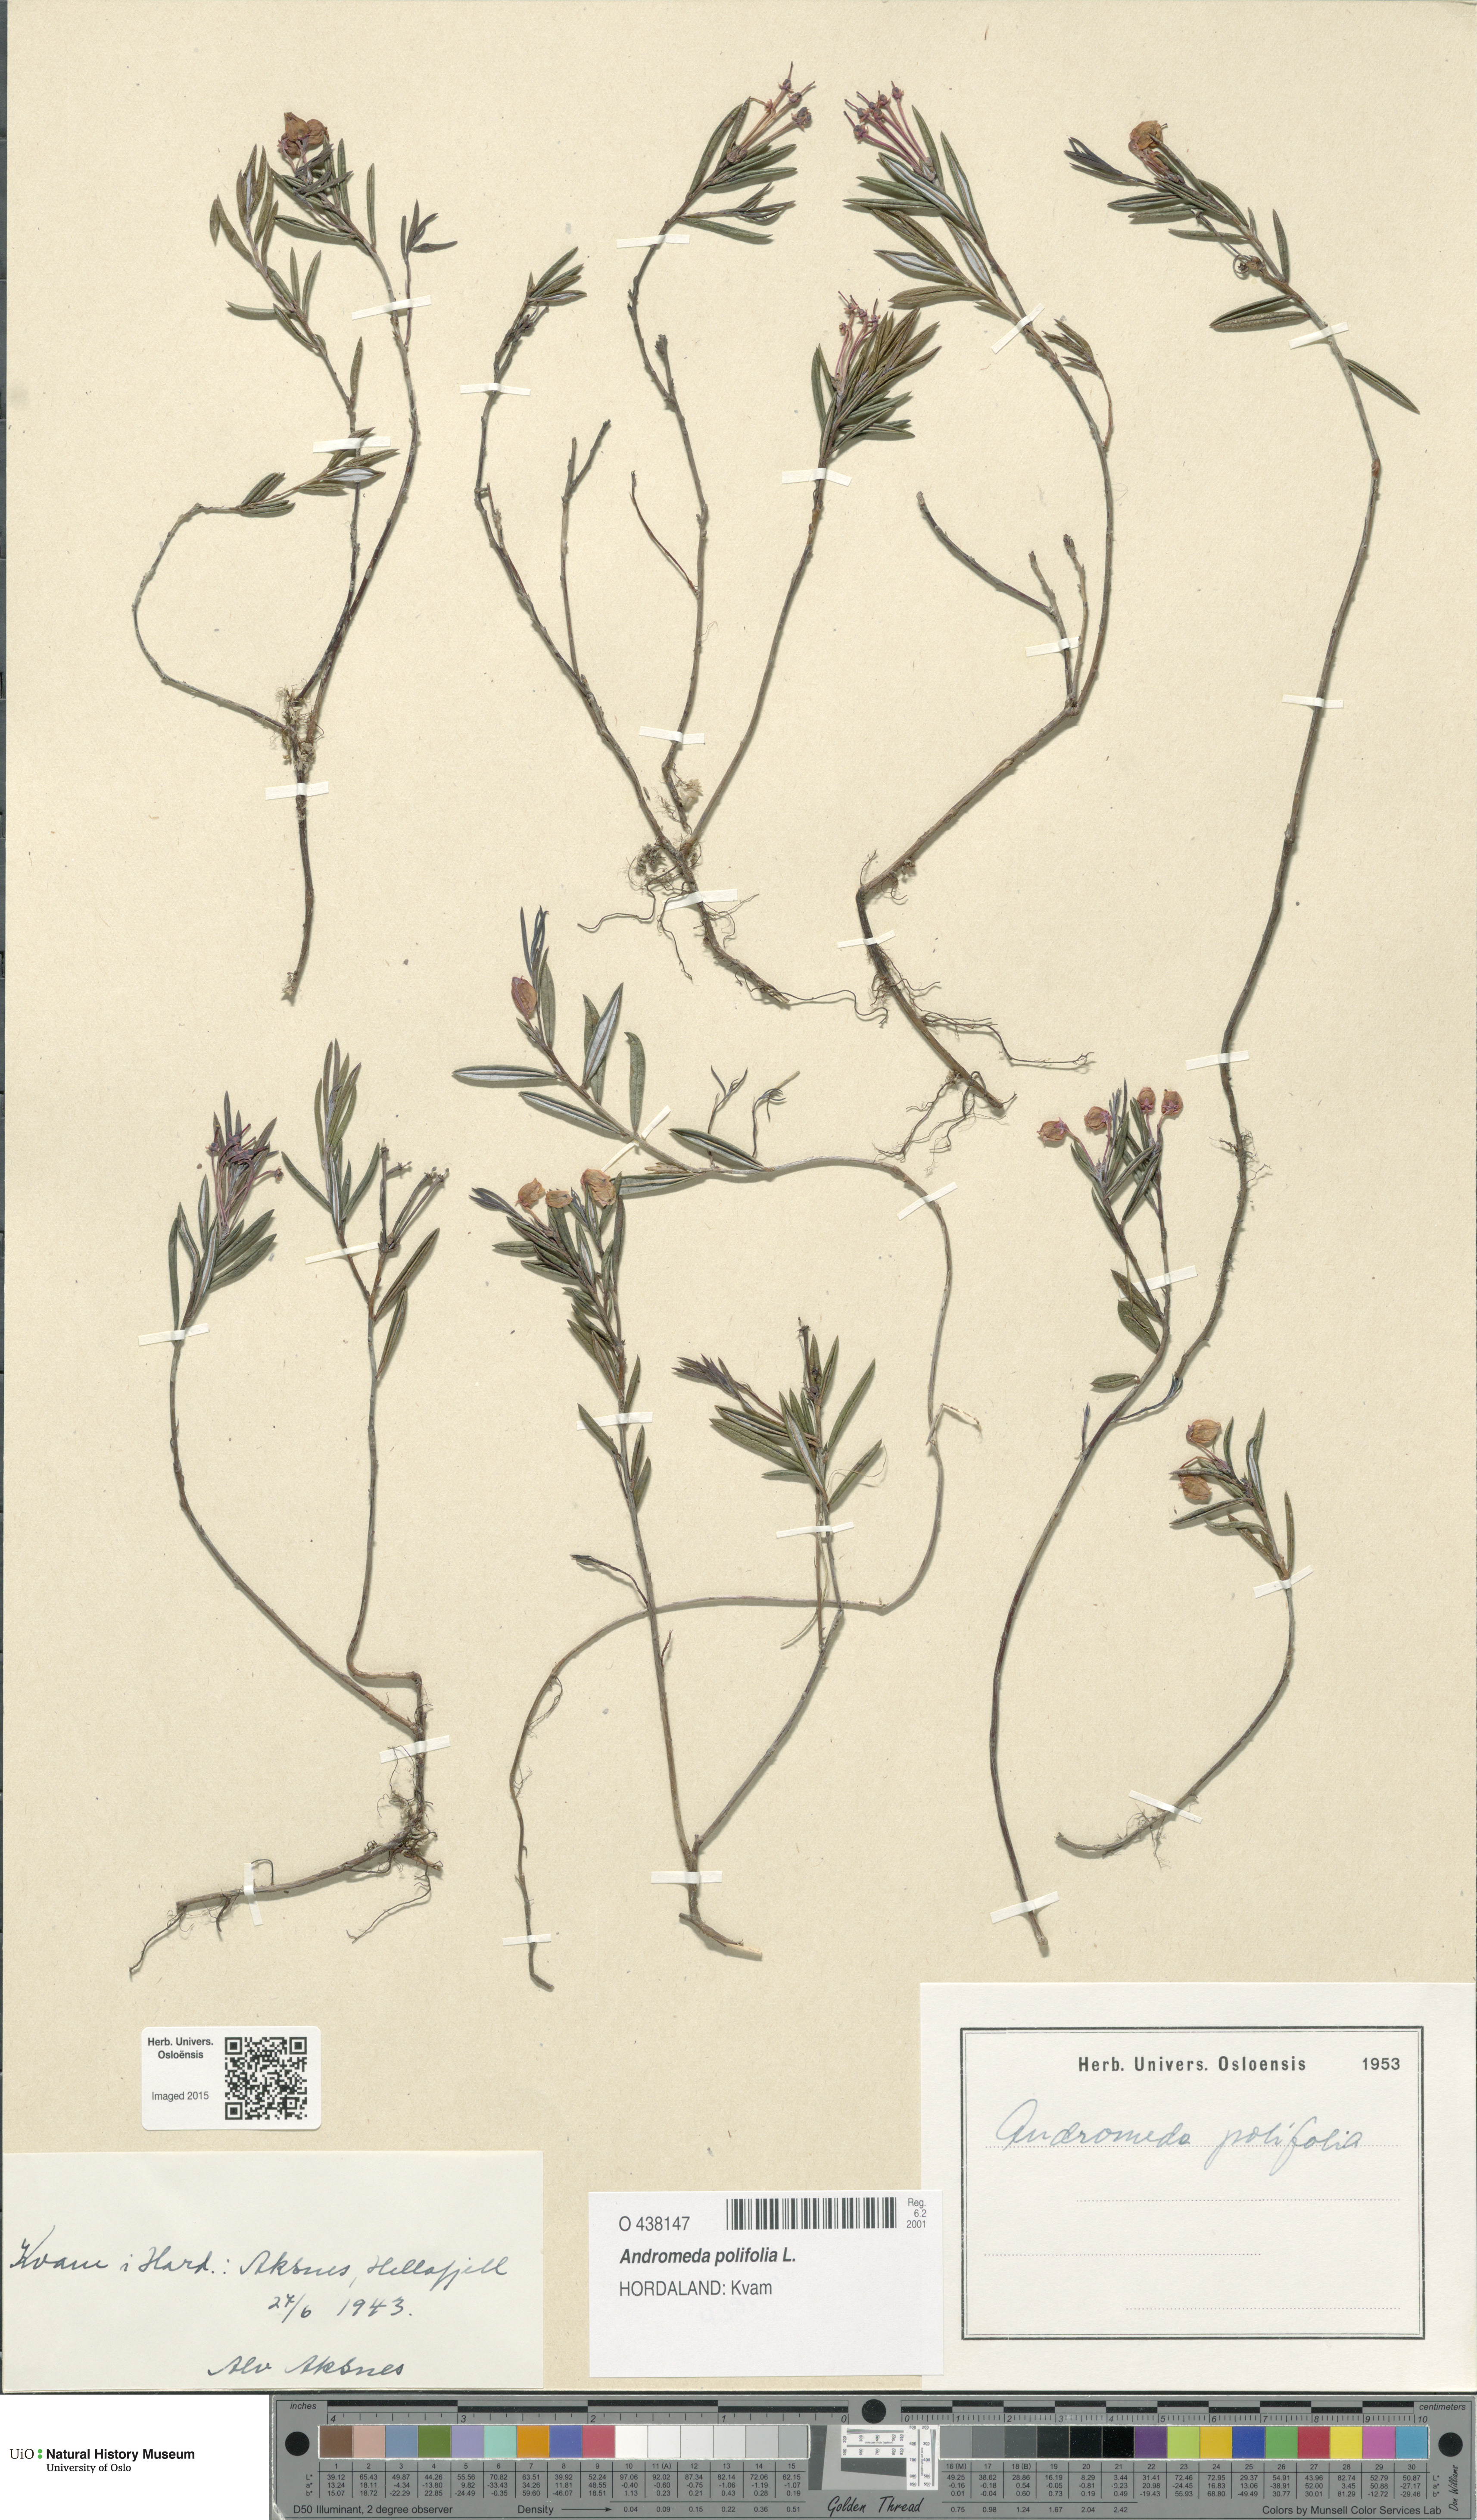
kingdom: Plantae
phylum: Tracheophyta
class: Magnoliopsida
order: Ericales
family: Ericaceae
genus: Andromeda
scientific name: Andromeda polifolia
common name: Bog-rosemary
